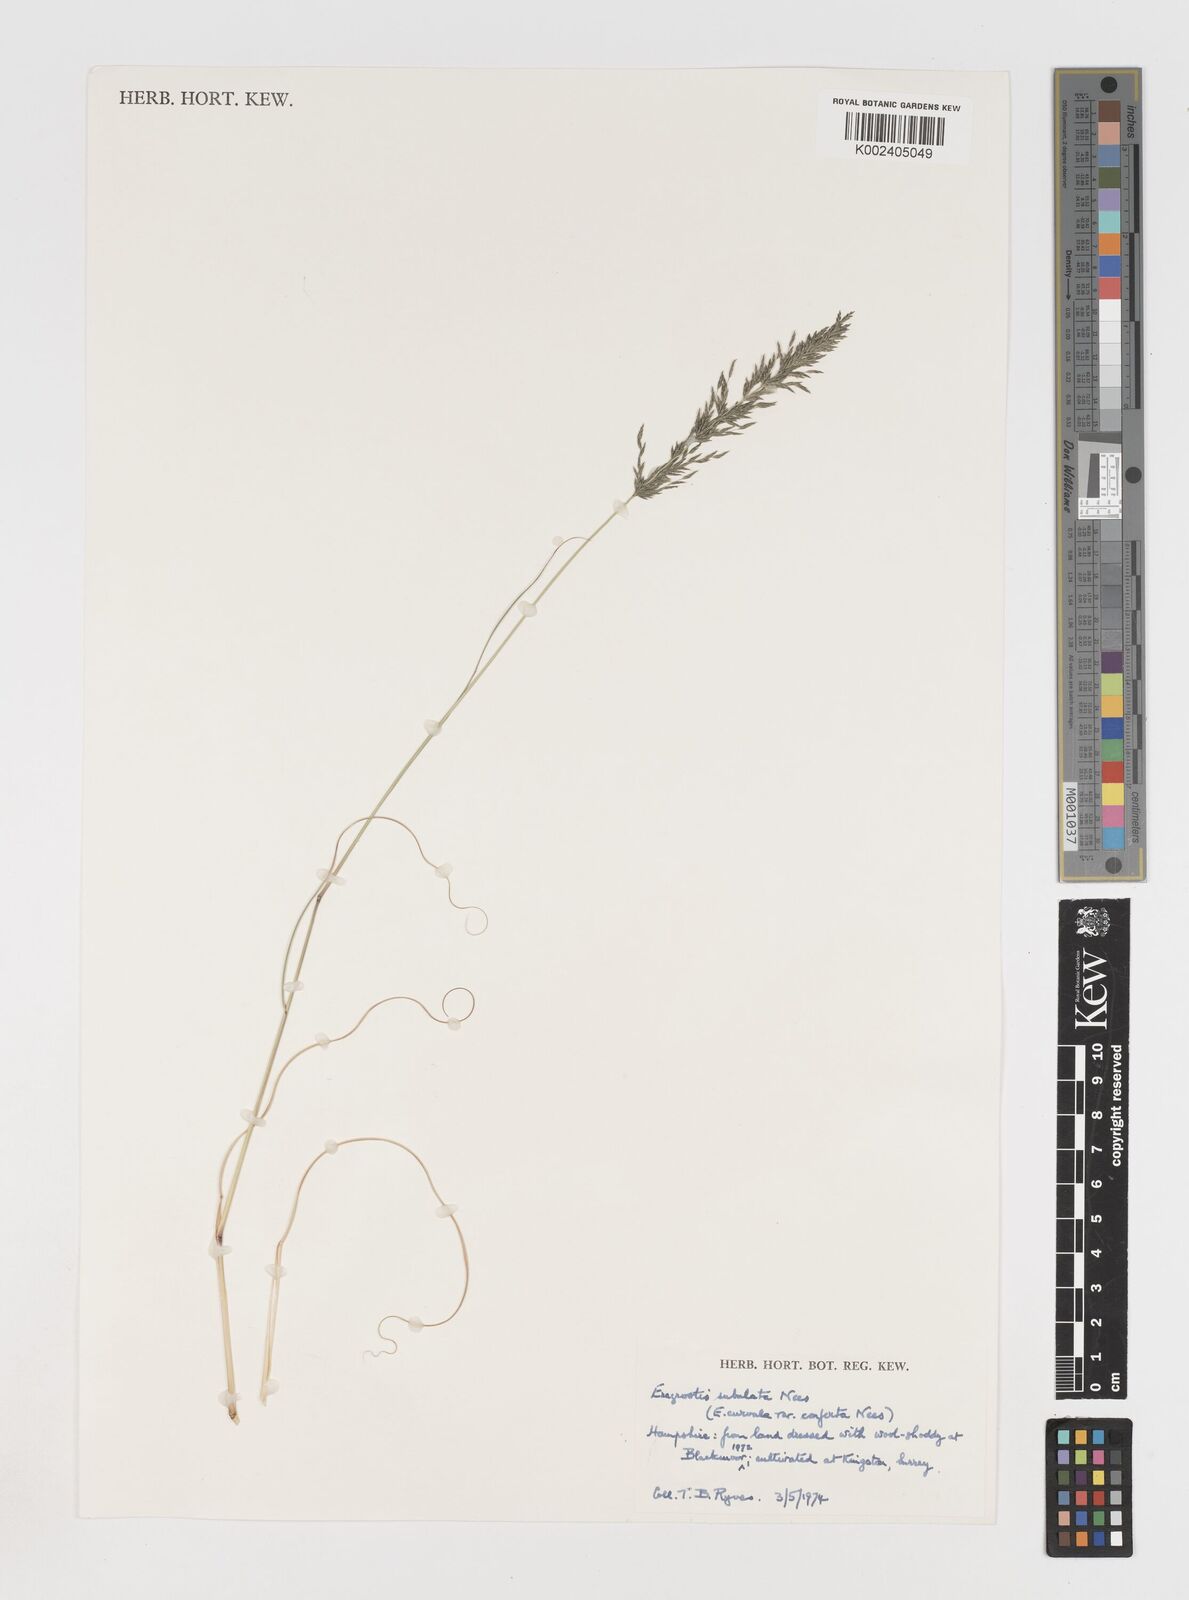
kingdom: Plantae
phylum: Tracheophyta
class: Liliopsida
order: Poales
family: Poaceae
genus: Eragrostis
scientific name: Eragrostis curvula
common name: African love-grass
